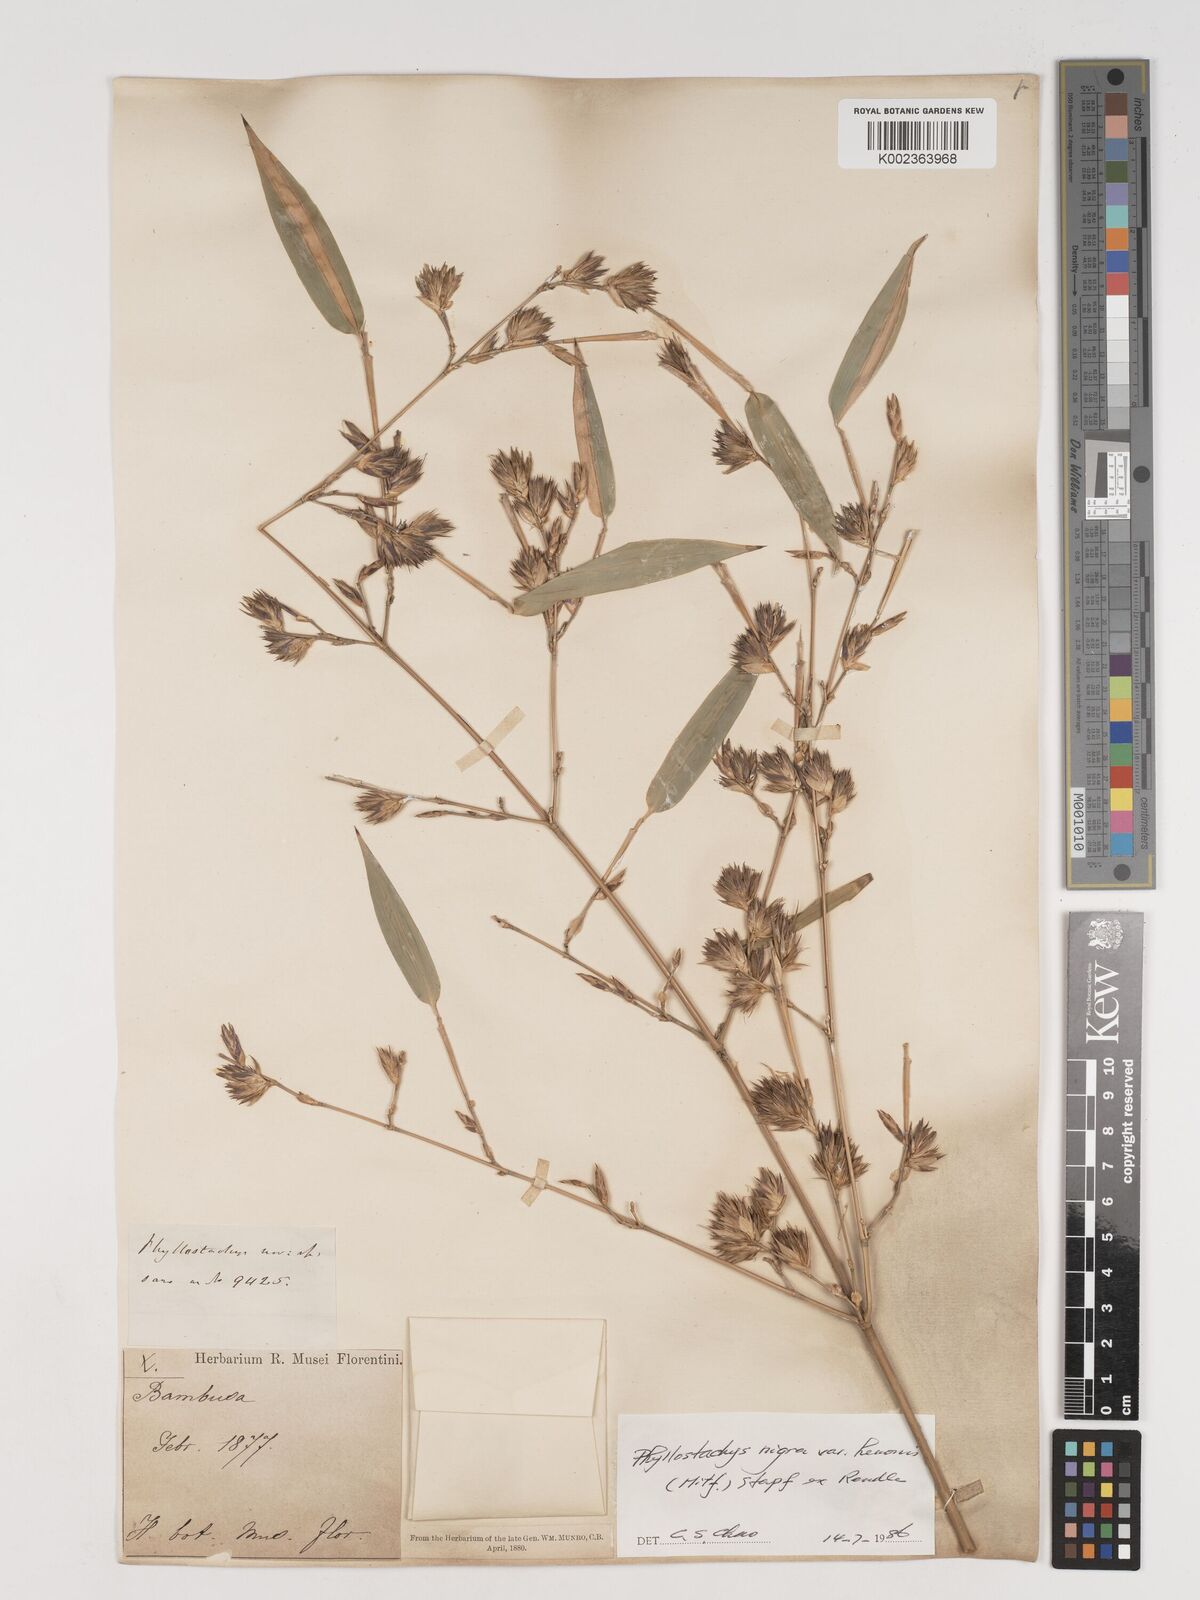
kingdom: Plantae
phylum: Tracheophyta
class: Liliopsida
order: Poales
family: Poaceae
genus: Phyllostachys
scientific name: Phyllostachys nigra
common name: Black bamboo
